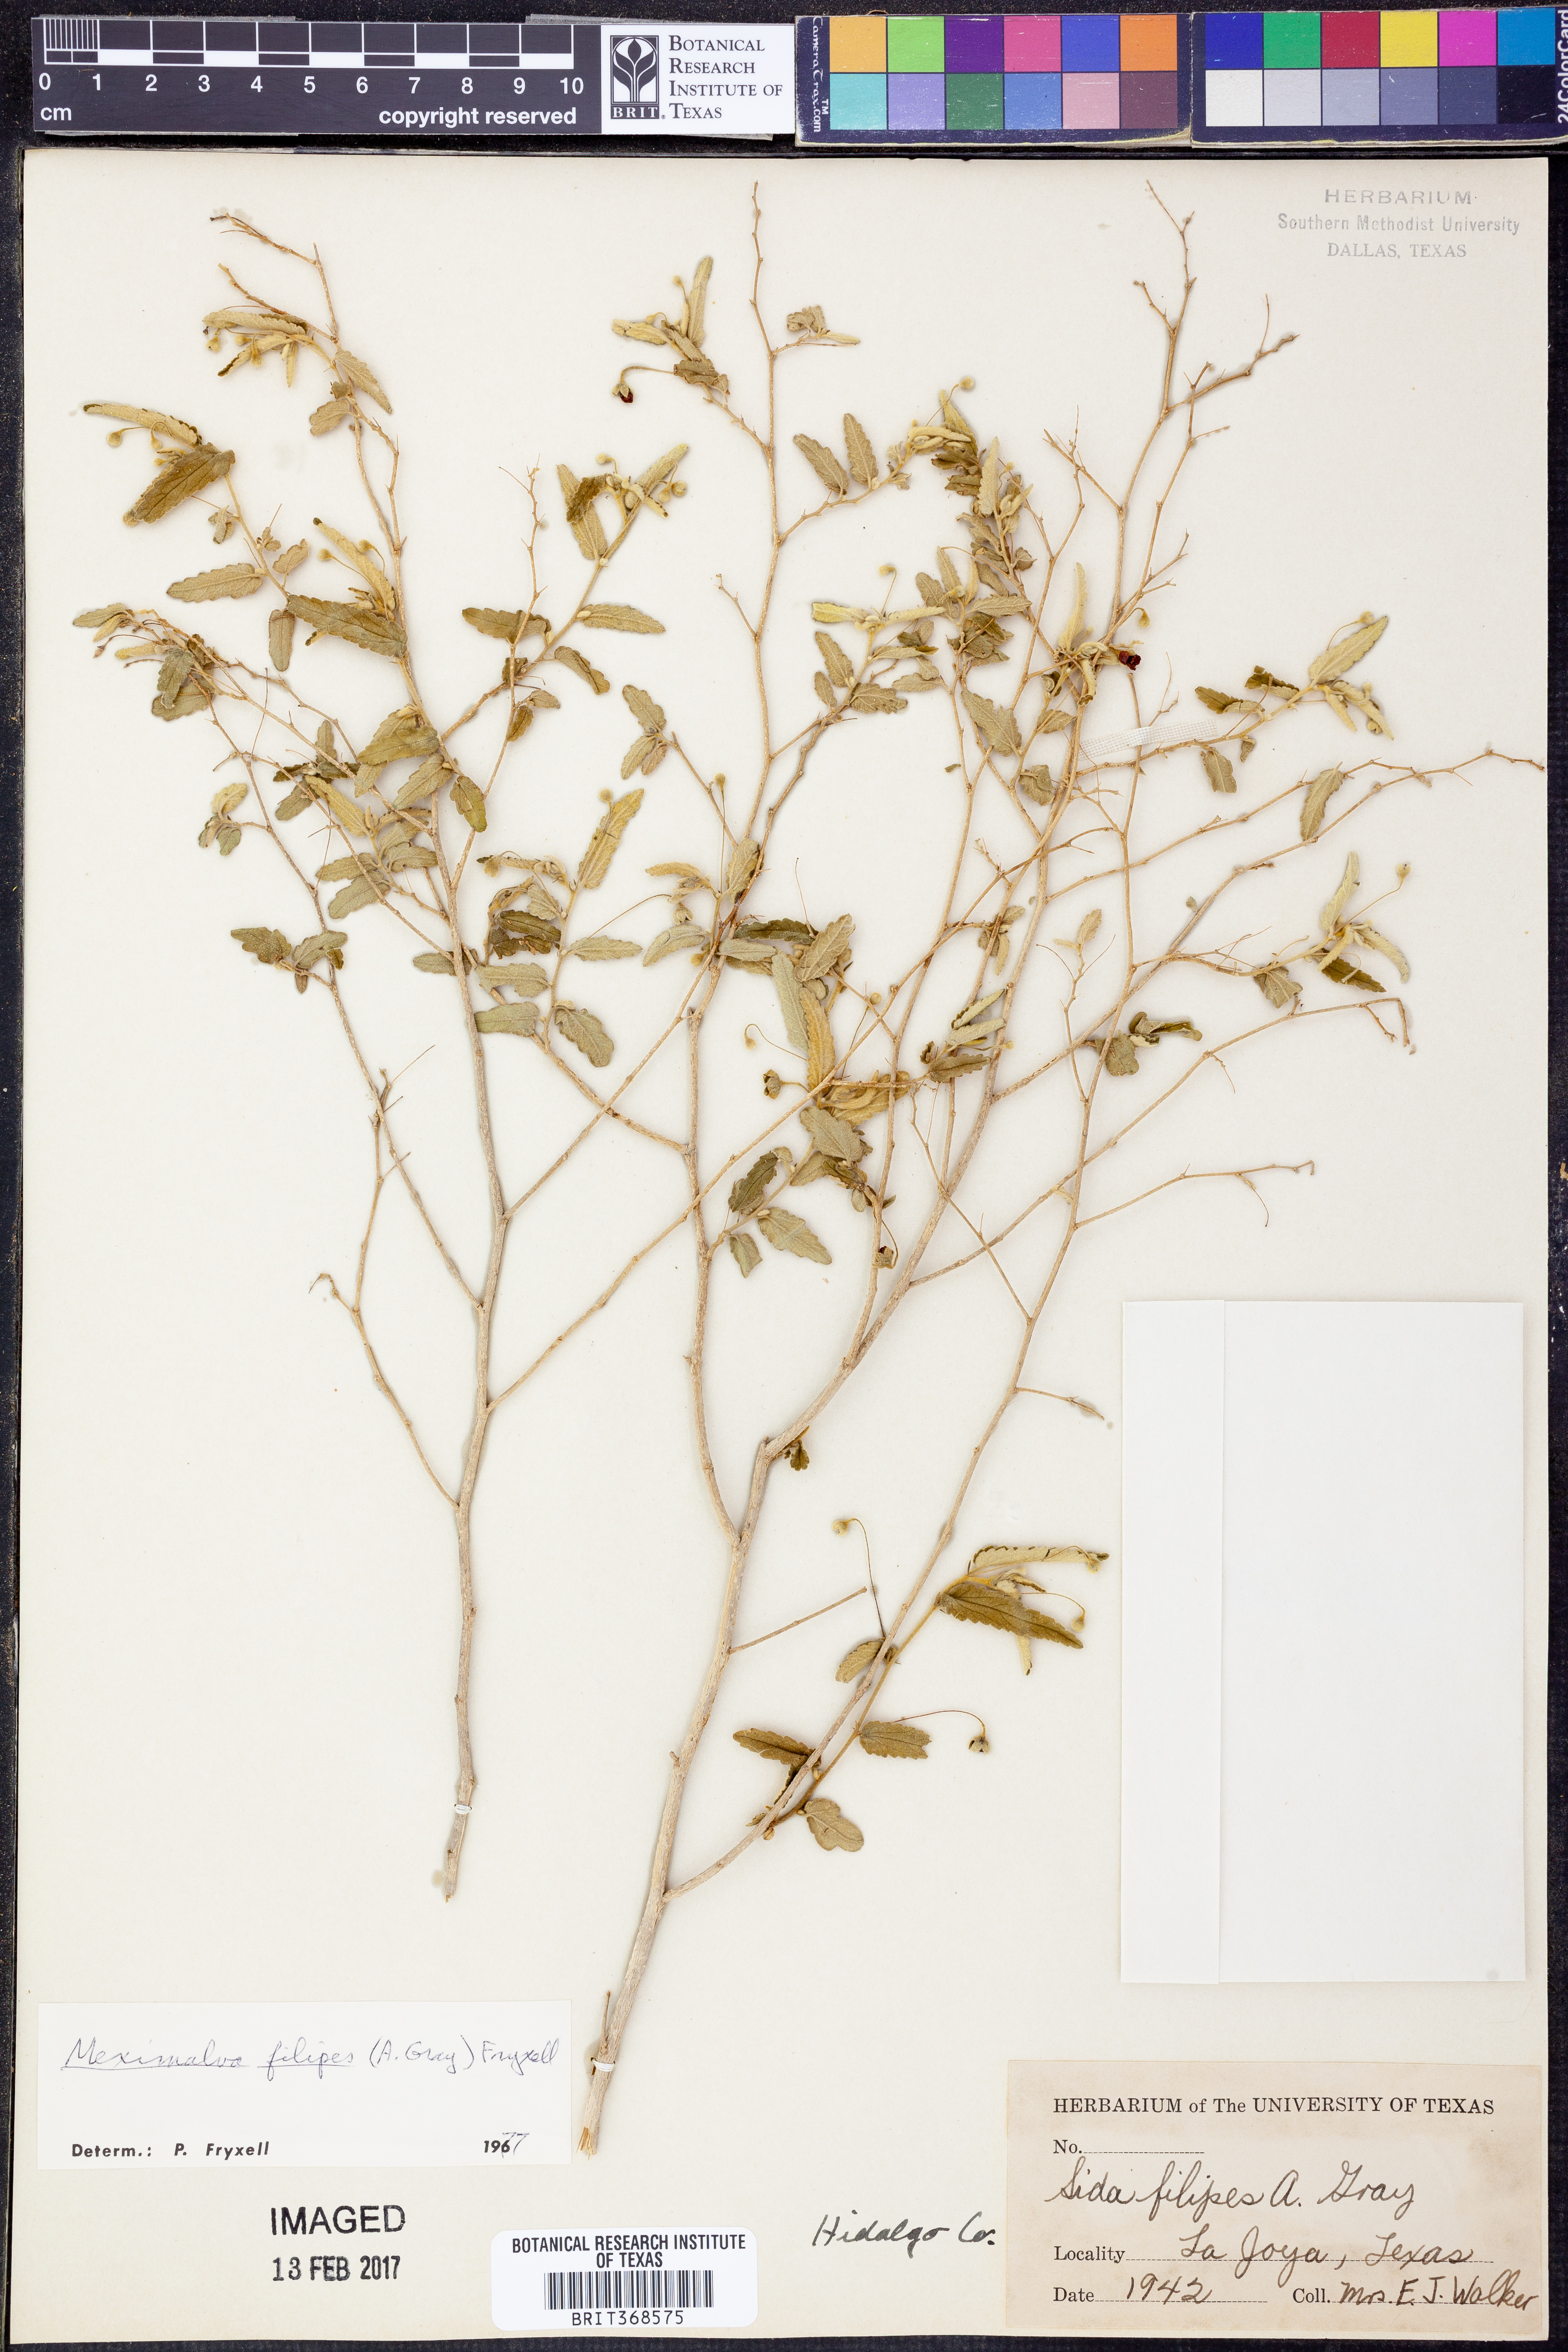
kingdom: Plantae
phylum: Tracheophyta
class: Magnoliopsida
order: Malvales
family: Malvaceae
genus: Meximalva
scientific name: Meximalva filipes
